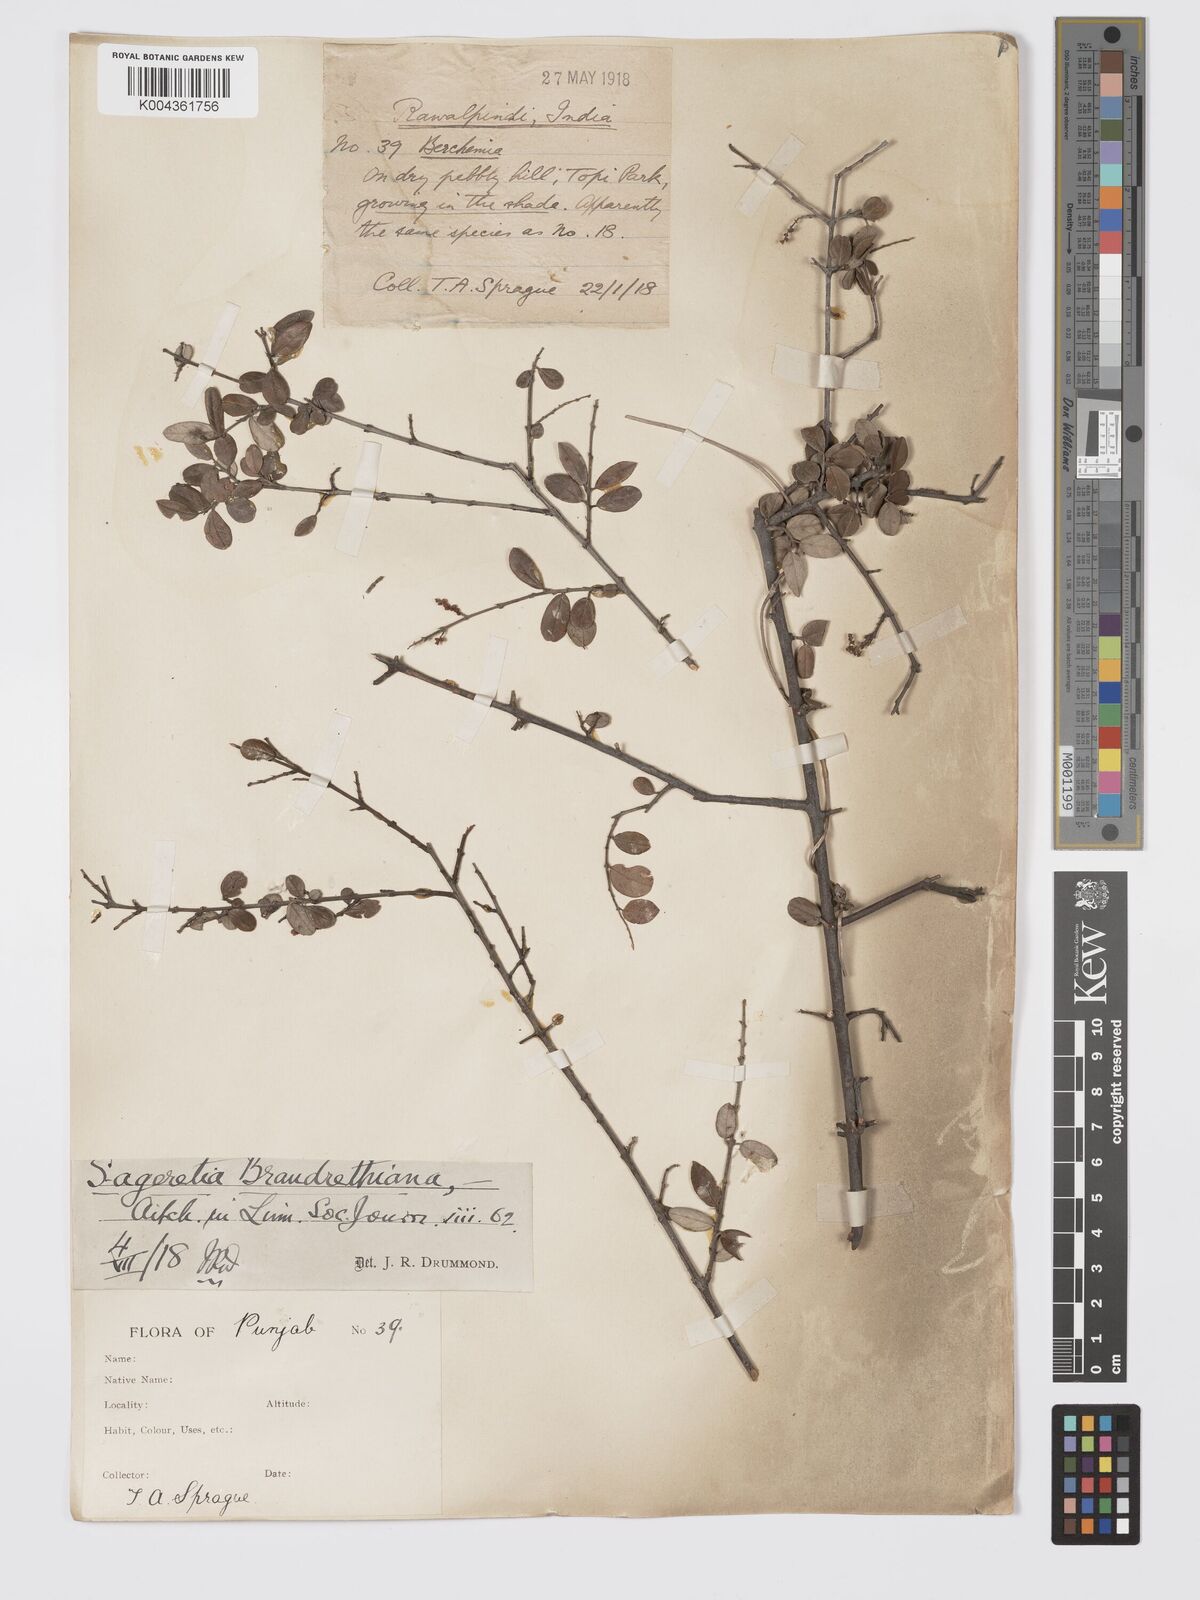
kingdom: Plantae
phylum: Tracheophyta
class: Magnoliopsida
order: Rosales
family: Rhamnaceae
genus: Sageretia
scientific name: Sageretia brandrethiana
